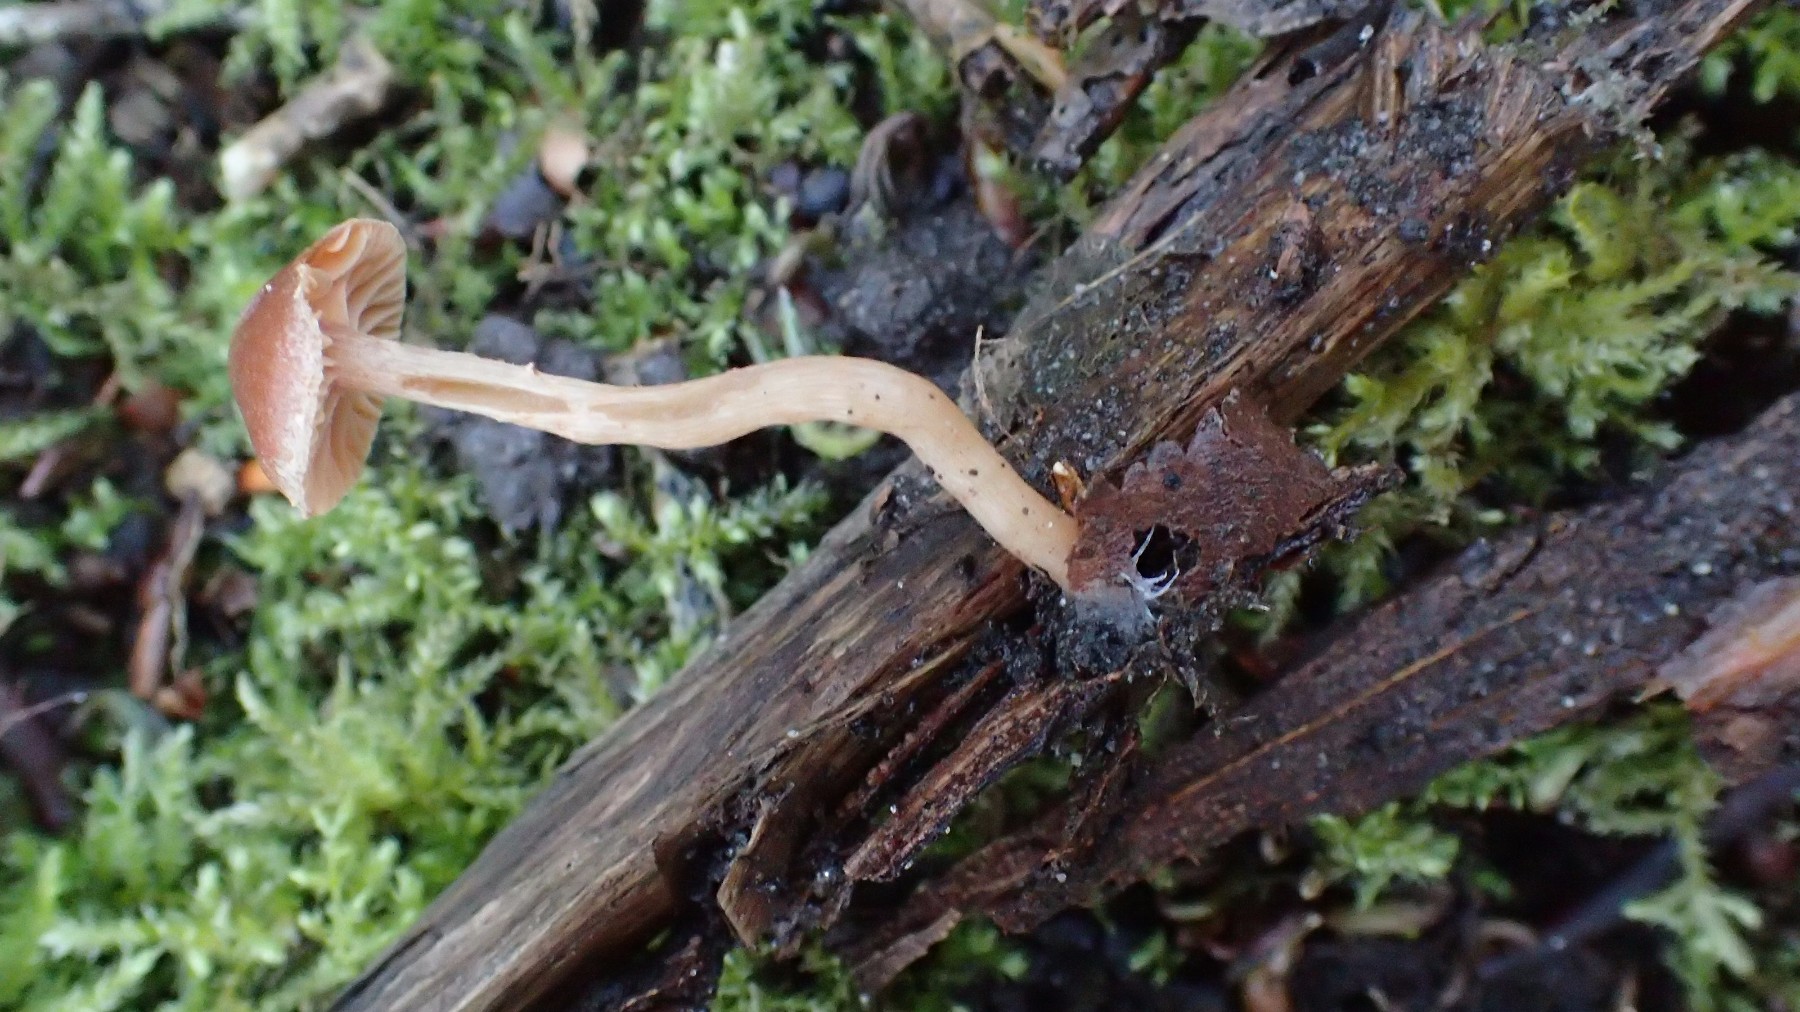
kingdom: Fungi
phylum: Basidiomycota
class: Agaricomycetes
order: Agaricales
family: Tubariaceae
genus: Tubaria
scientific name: Tubaria furfuracea
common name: kliddet fnughat
